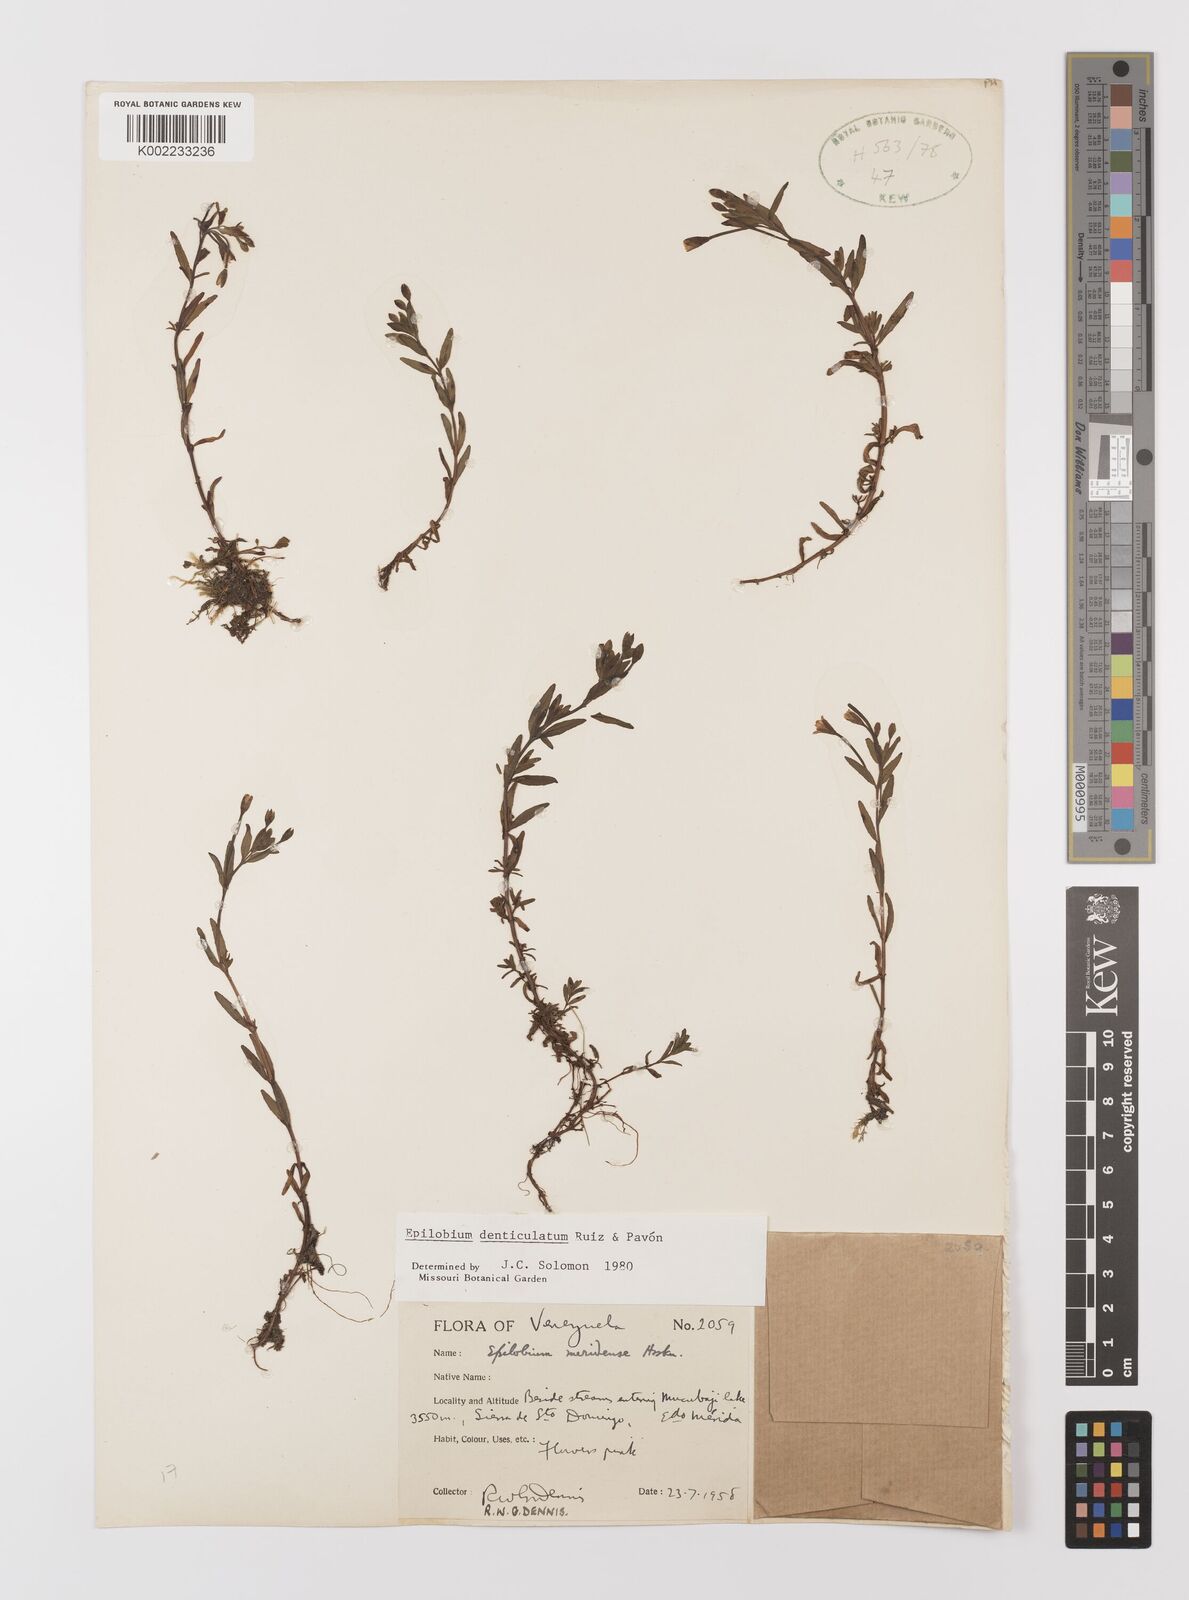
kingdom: Plantae
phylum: Tracheophyta
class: Magnoliopsida
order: Myrtales
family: Onagraceae
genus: Epilobium
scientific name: Epilobium denticulatum
